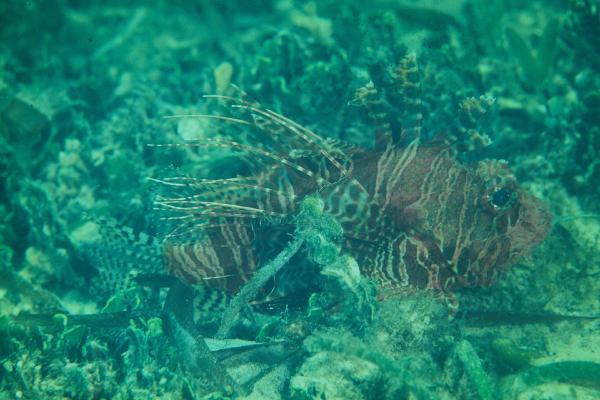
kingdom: Animalia
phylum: Chordata
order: Scorpaeniformes
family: Scorpaenidae
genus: Pterois
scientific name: Pterois mombasae
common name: Deepwater firefish
